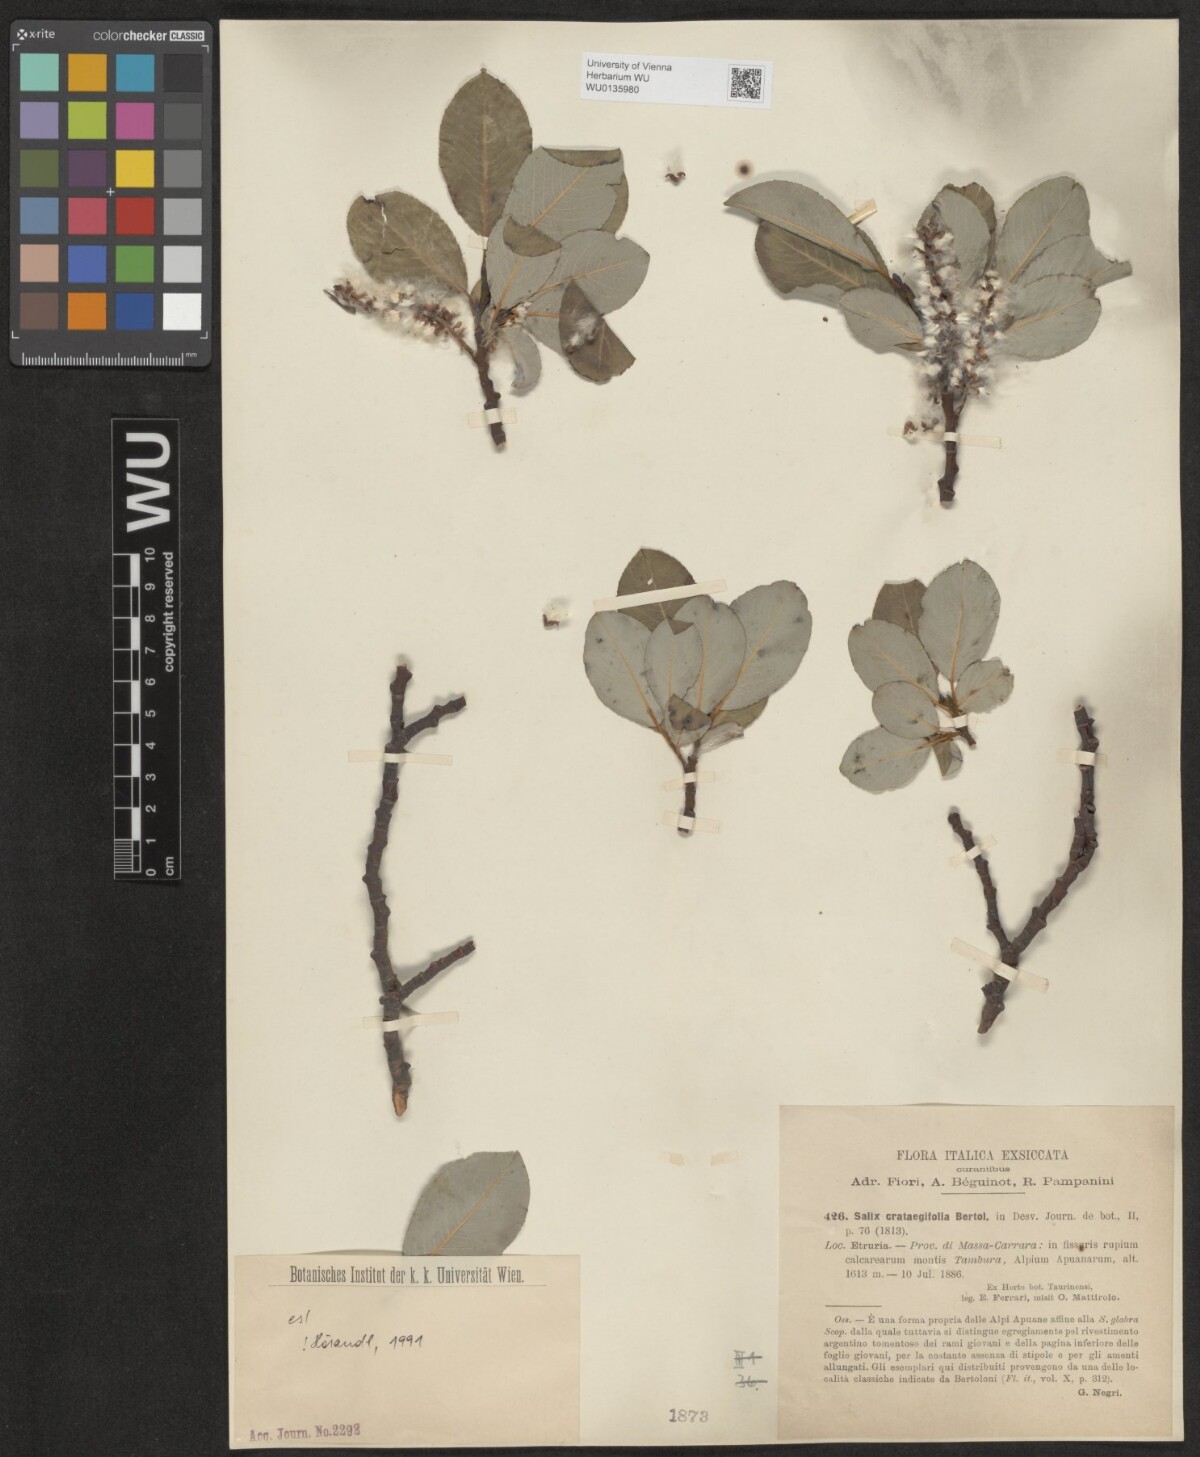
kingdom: Plantae
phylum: Tracheophyta
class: Magnoliopsida
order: Malpighiales
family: Salicaceae
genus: Salix
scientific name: Salix crataegifolia
